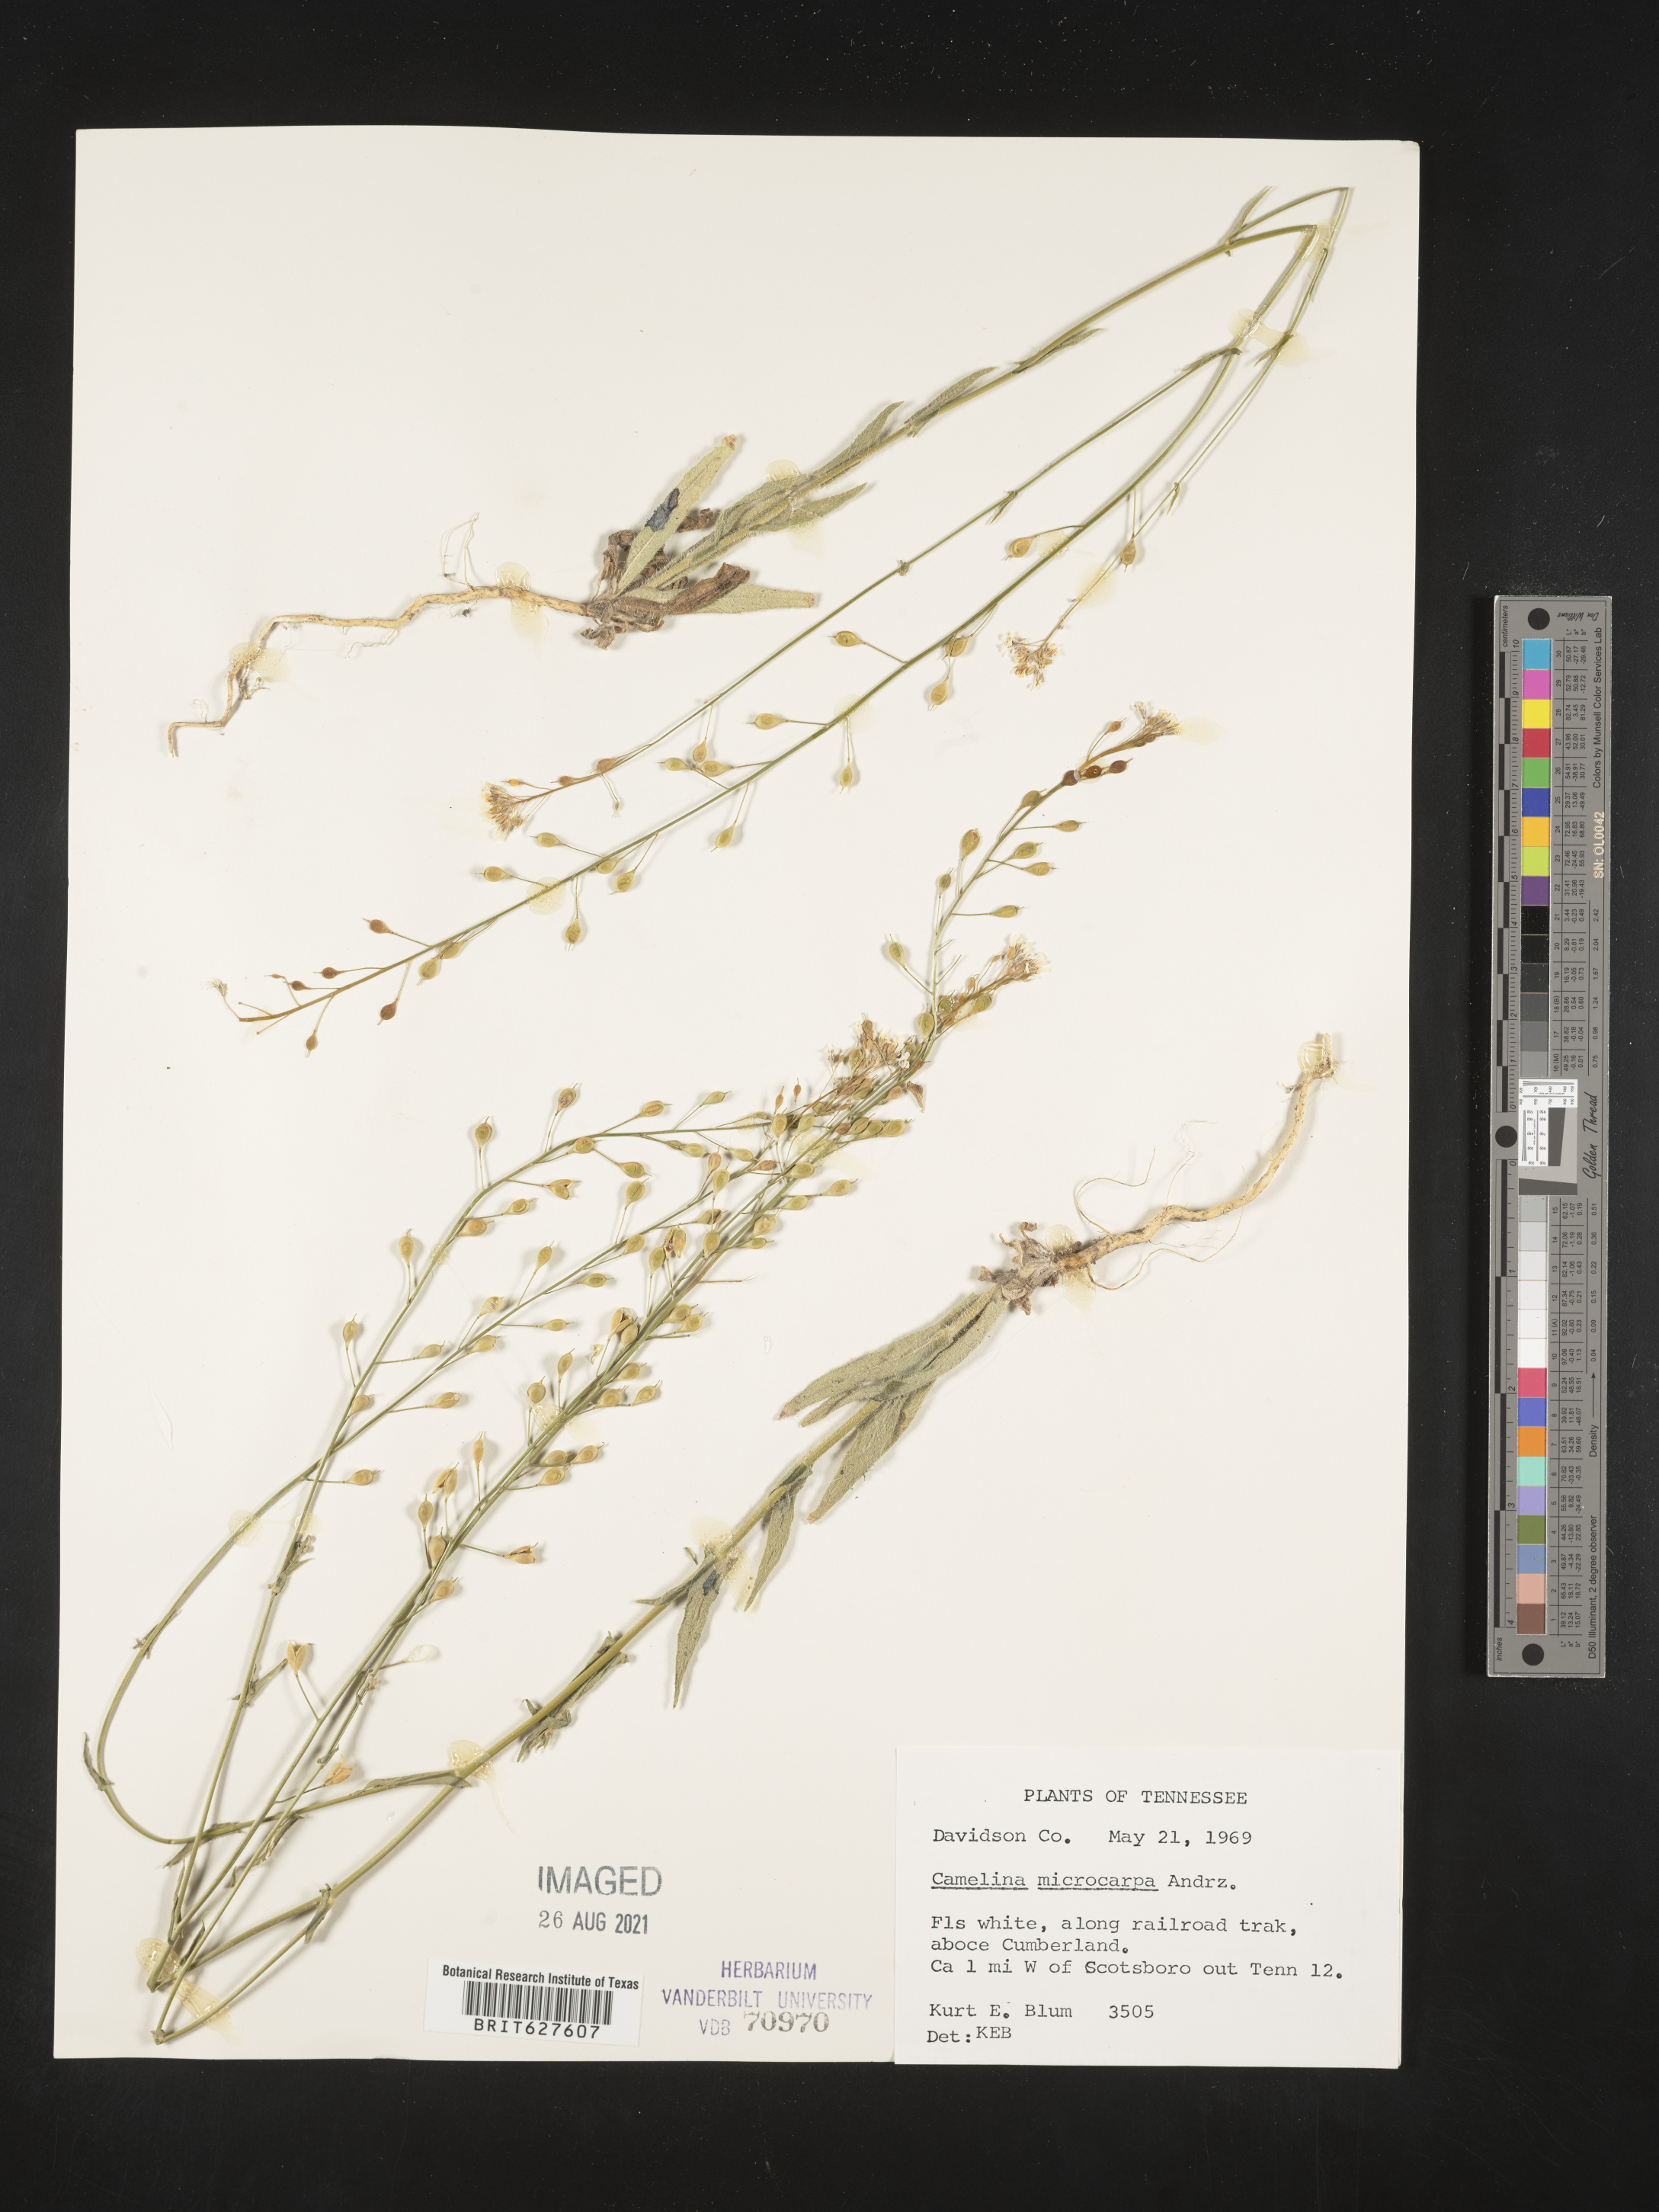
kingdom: Plantae
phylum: Tracheophyta
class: Magnoliopsida
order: Brassicales
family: Brassicaceae
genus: Camelina
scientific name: Camelina
